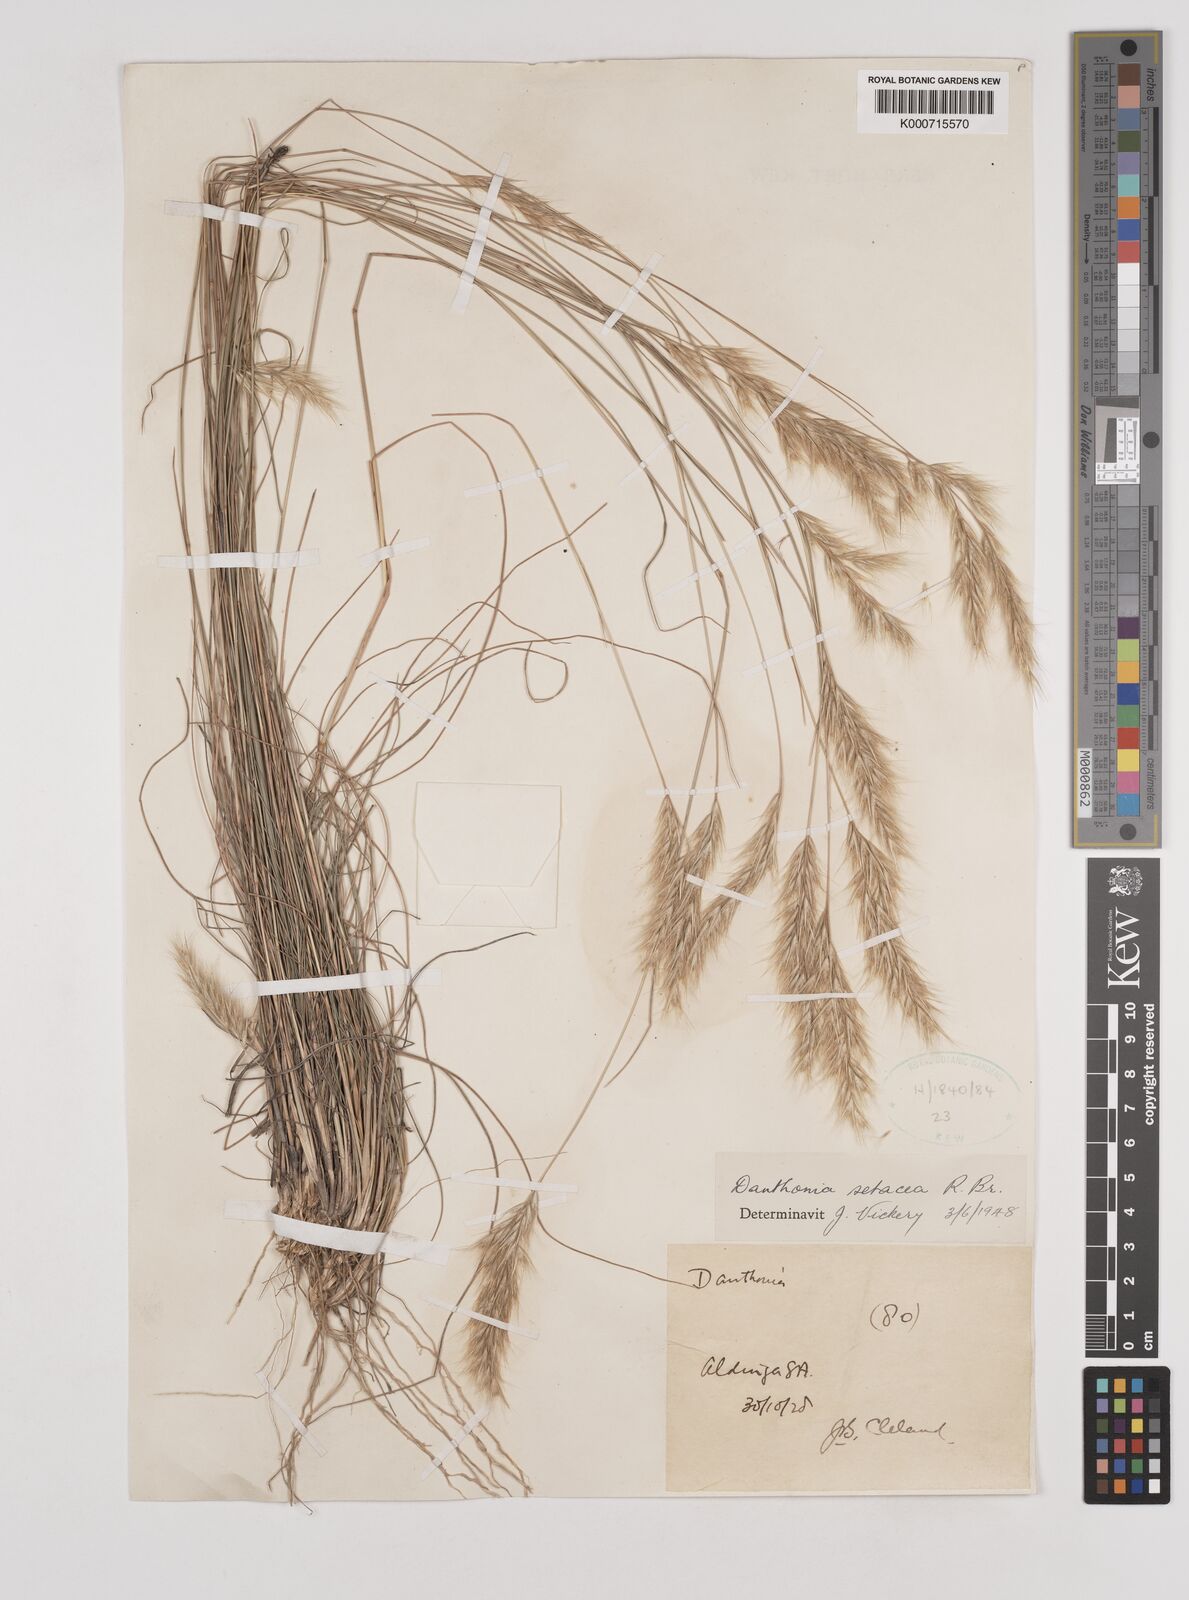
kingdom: Plantae
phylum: Tracheophyta
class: Liliopsida
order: Poales
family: Poaceae
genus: Rytidosperma
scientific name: Rytidosperma setaceum
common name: Small-flower wallaby grass
